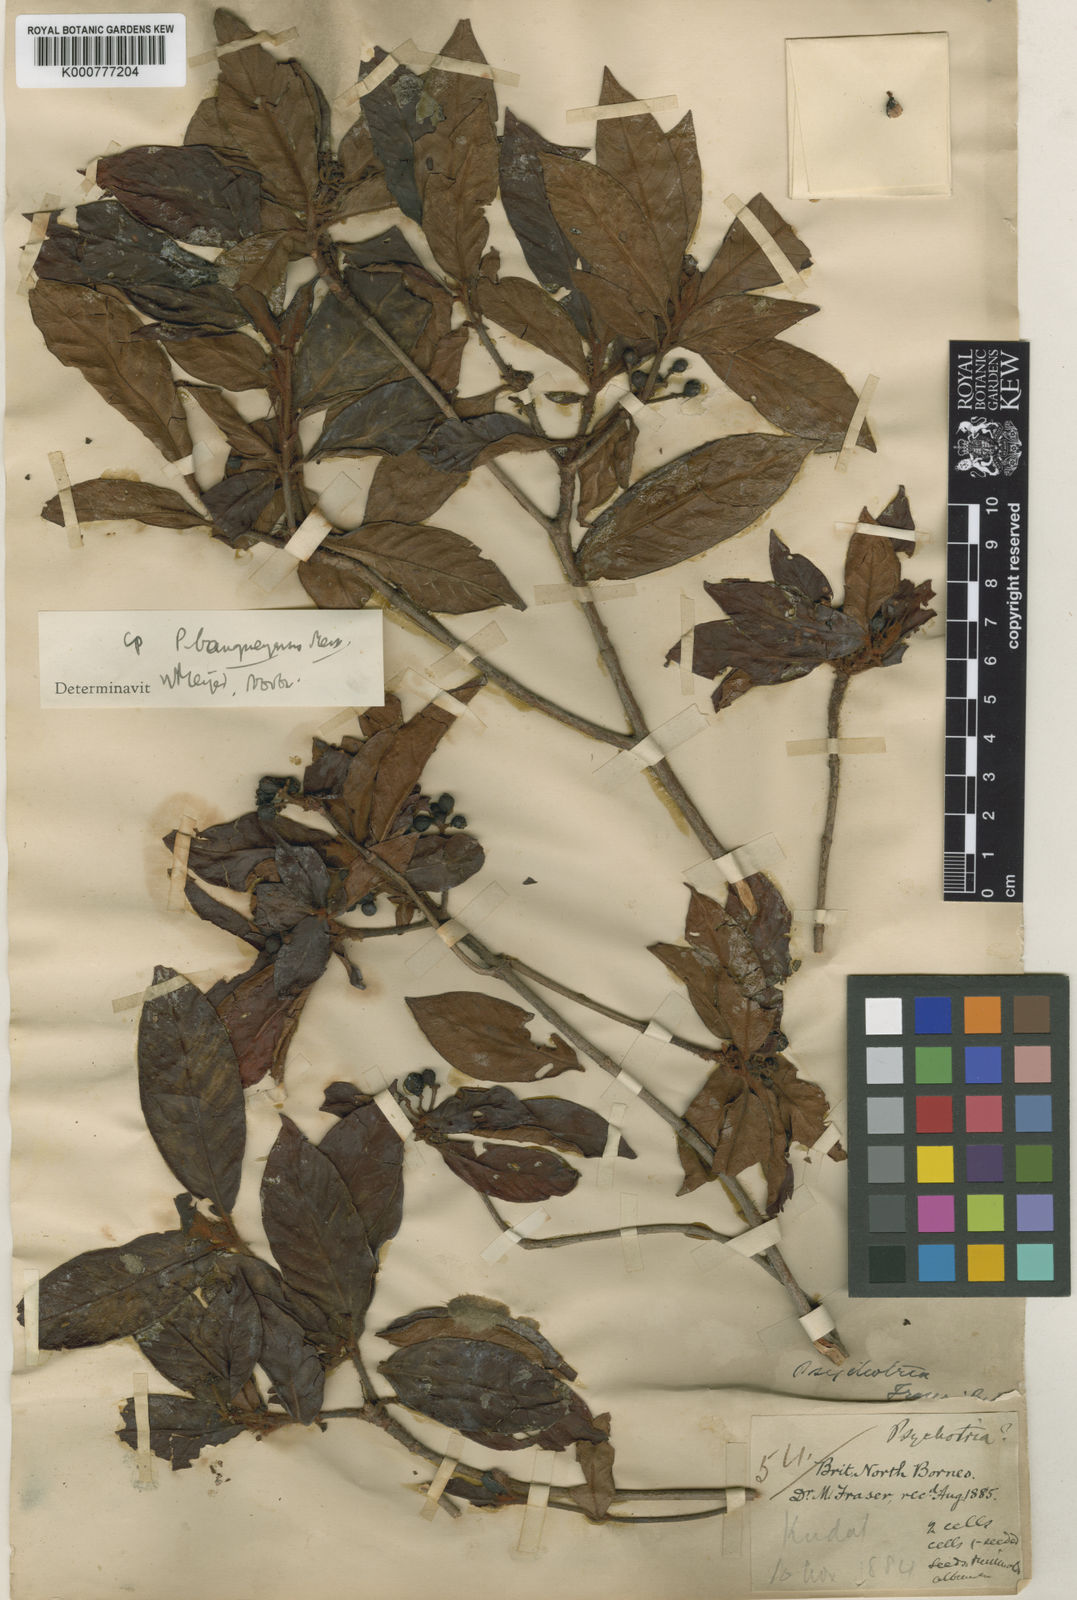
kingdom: Plantae
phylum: Tracheophyta
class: Magnoliopsida
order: Gentianales
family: Rubiaceae
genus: Psychotria
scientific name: Psychotria fraseri
